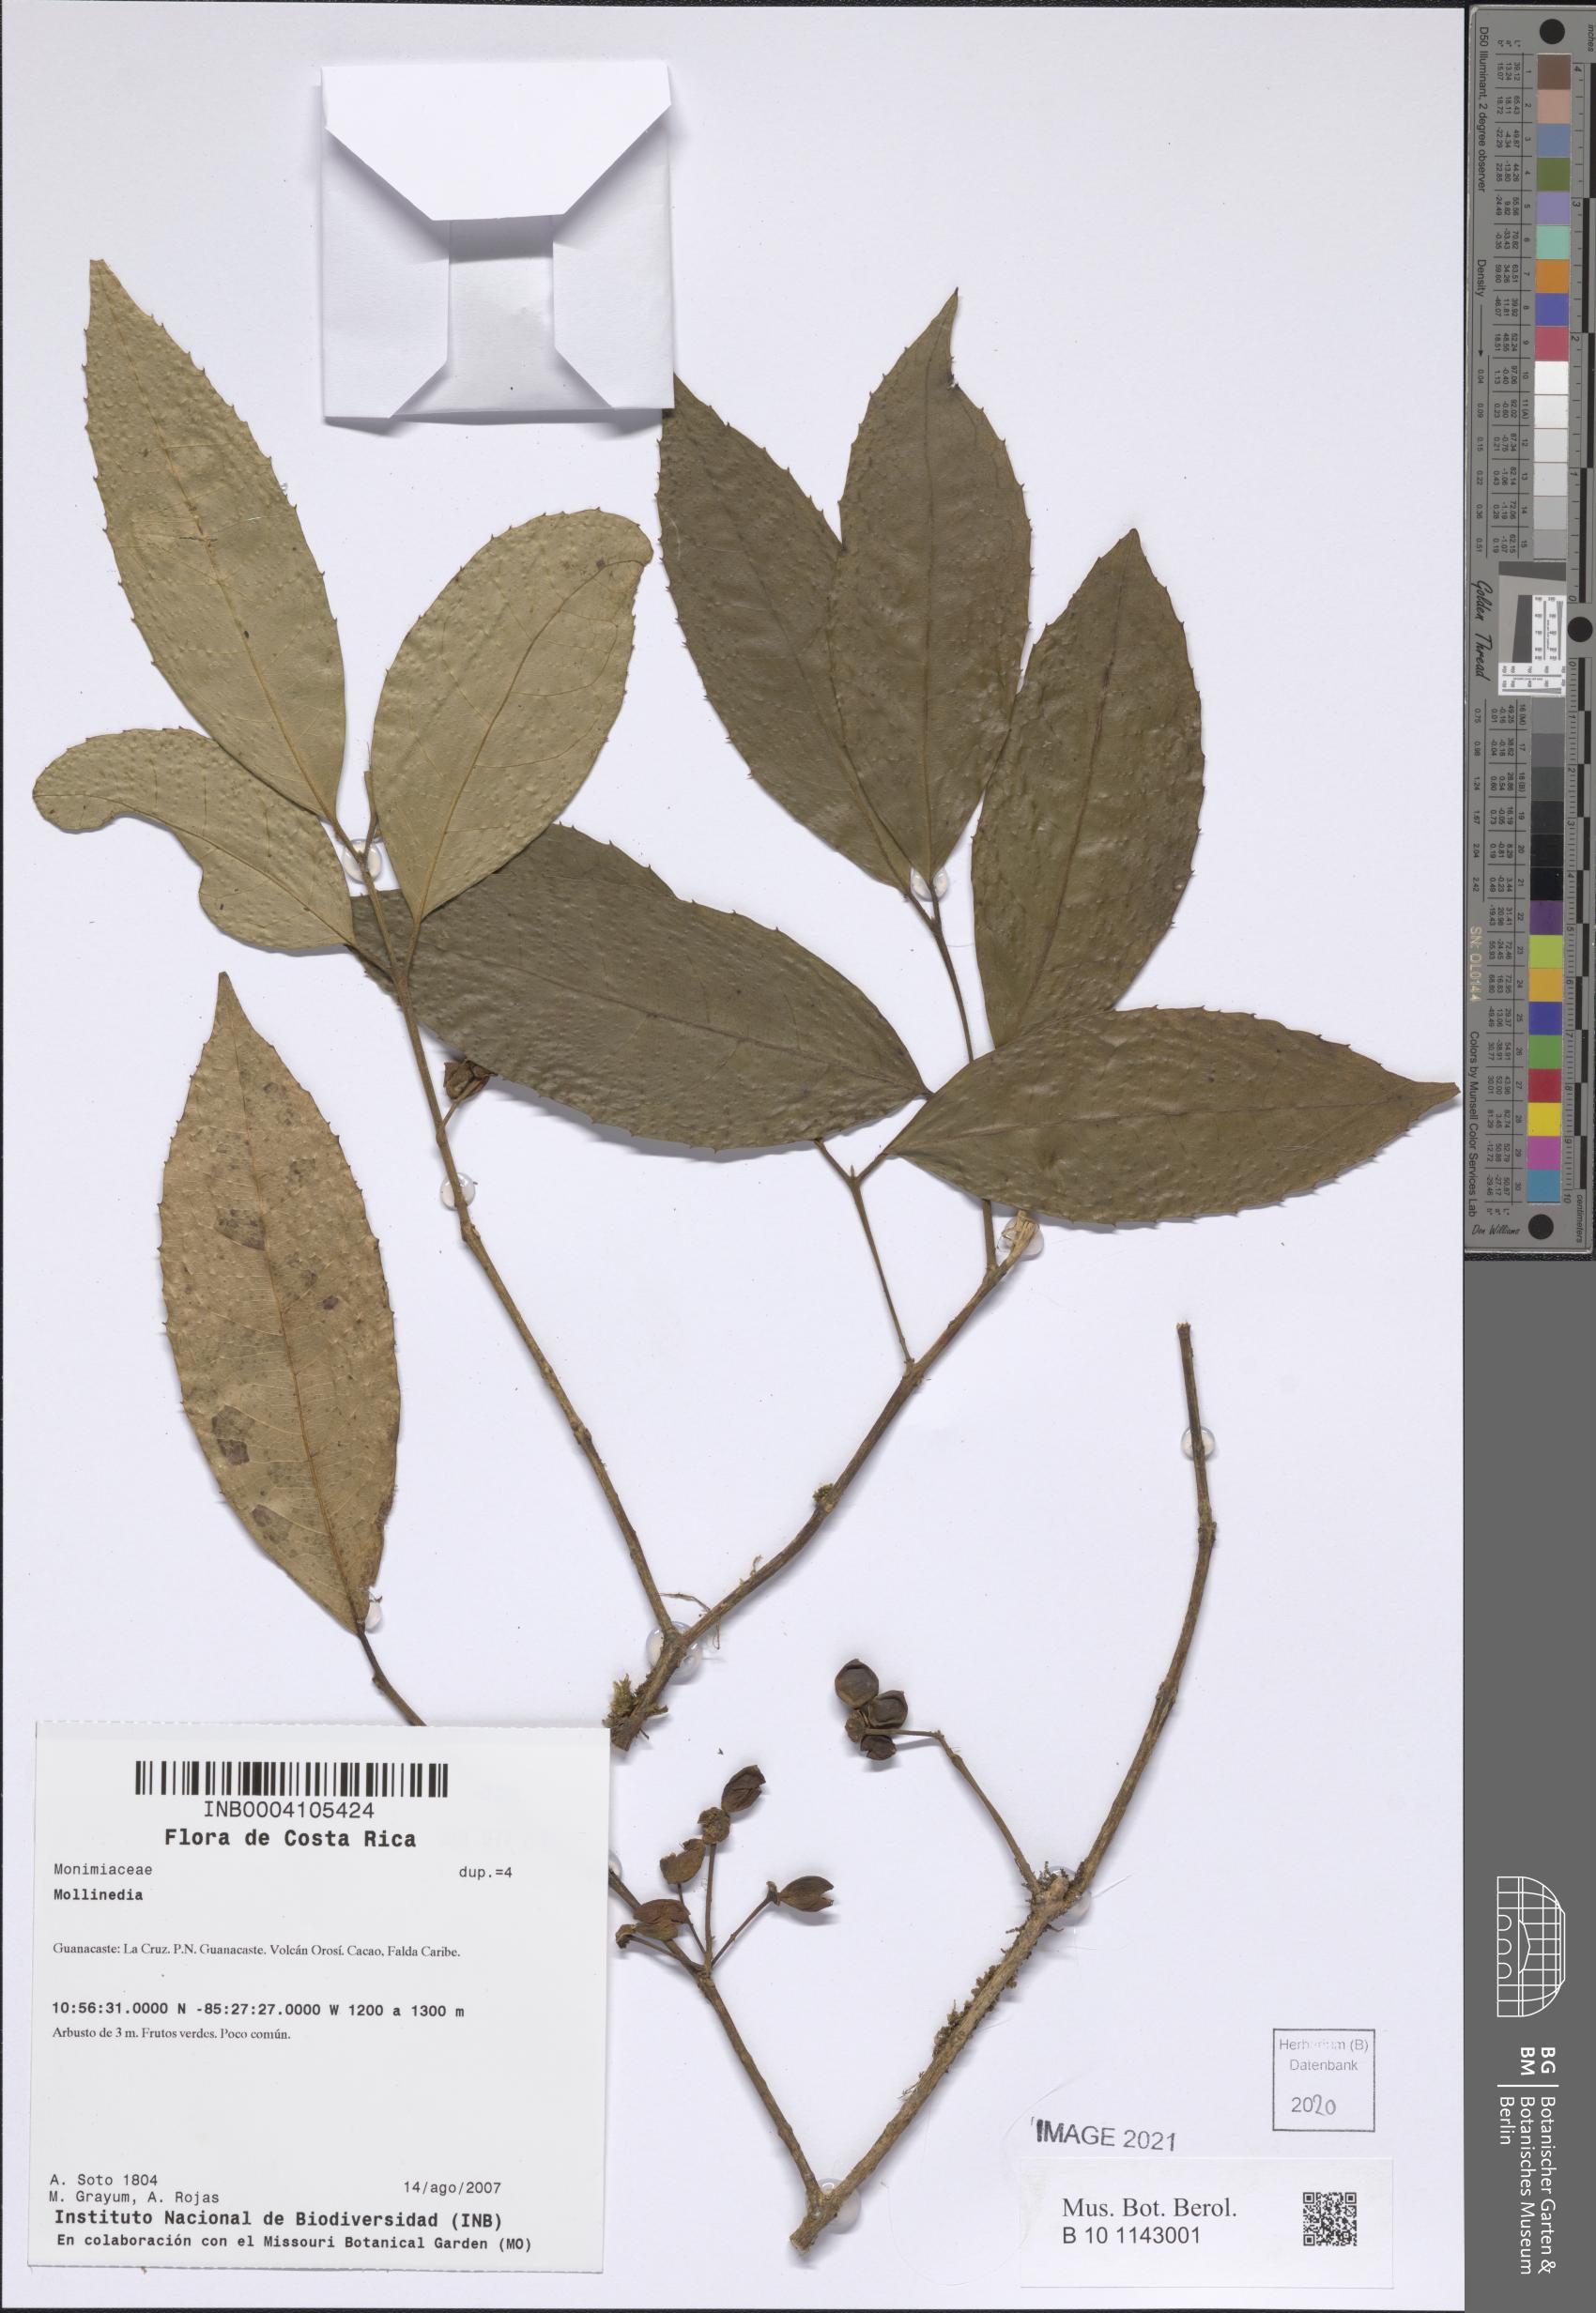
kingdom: Plantae
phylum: Tracheophyta
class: Magnoliopsida
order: Laurales
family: Monimiaceae
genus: Mollinedia
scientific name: Mollinedia viridiflora
